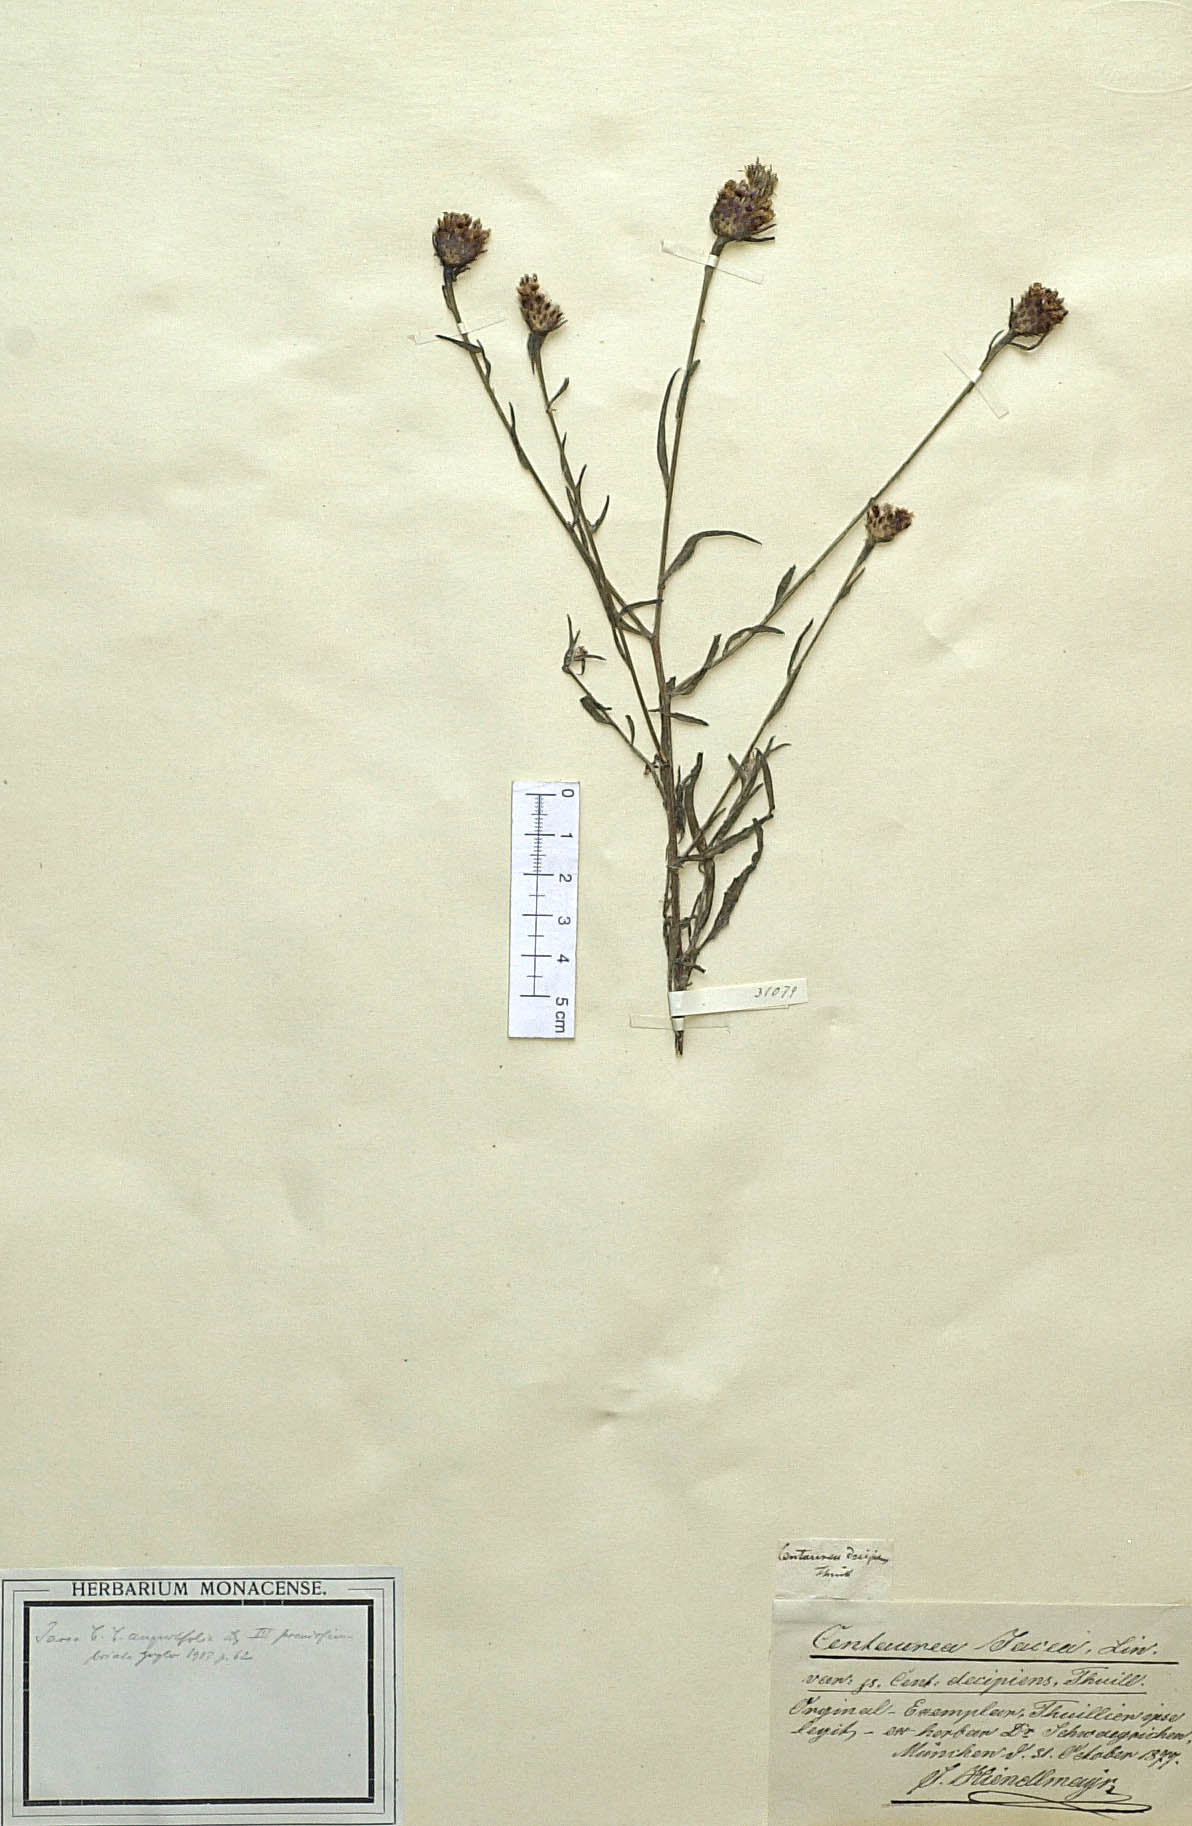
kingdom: Plantae
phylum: Tracheophyta
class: Magnoliopsida
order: Asterales
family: Asteraceae
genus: Centaurea
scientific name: Centaurea decipiens
